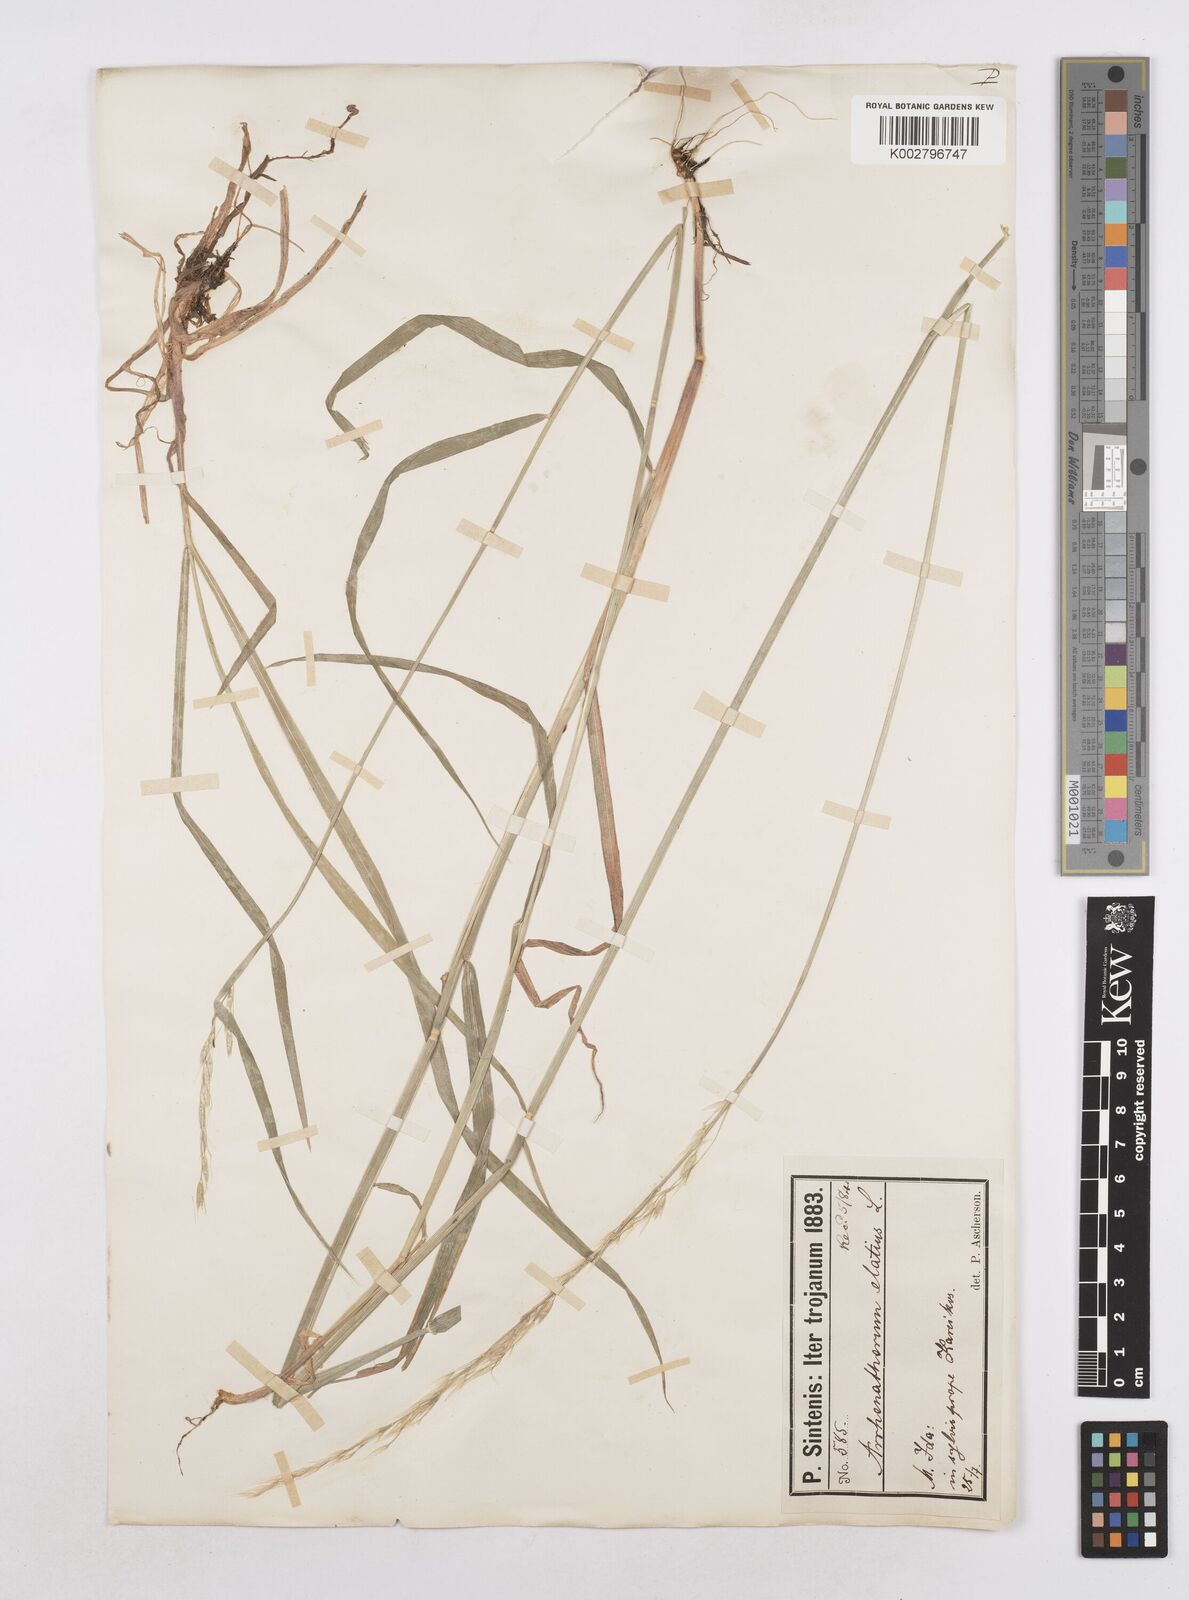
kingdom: Plantae
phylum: Tracheophyta
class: Liliopsida
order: Poales
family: Poaceae
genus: Arrhenatherum
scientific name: Arrhenatherum elatius
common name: Tall oatgrass
